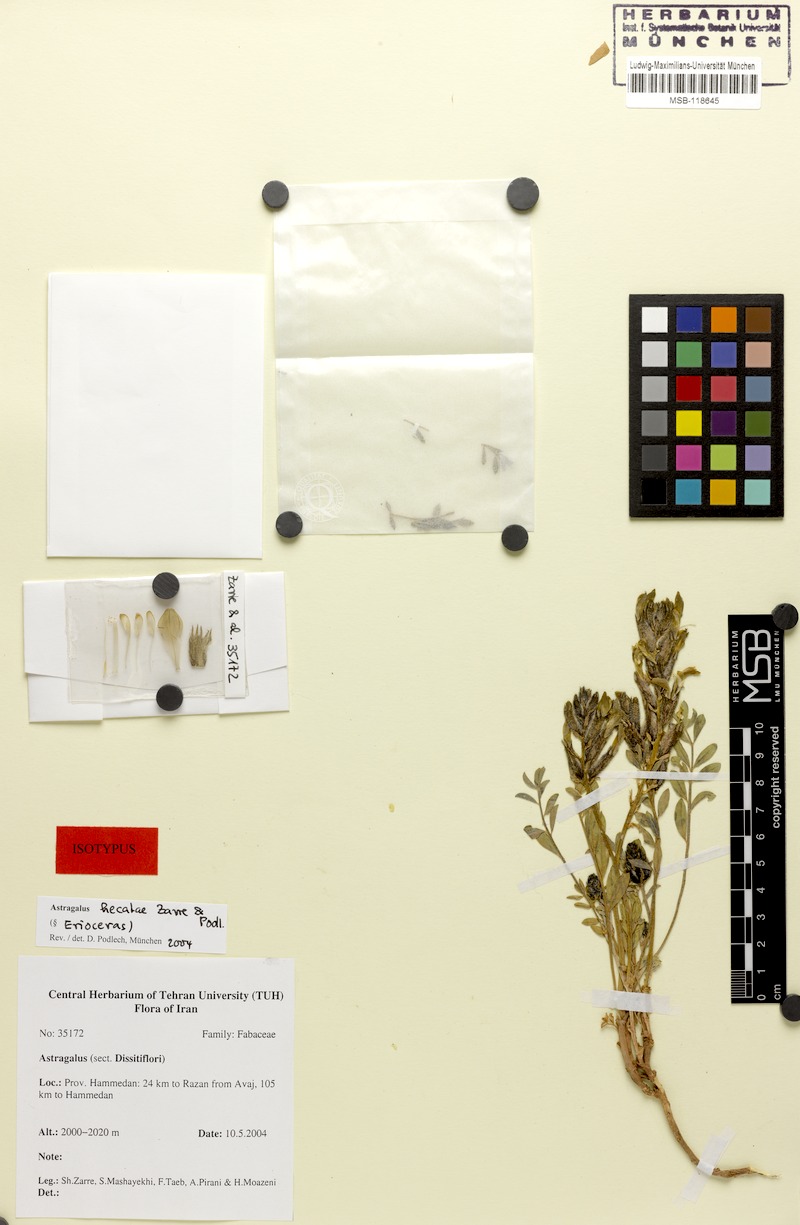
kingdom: Plantae
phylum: Tracheophyta
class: Magnoliopsida
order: Fabales
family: Fabaceae
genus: Astragalus
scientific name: Astragalus hecatae
